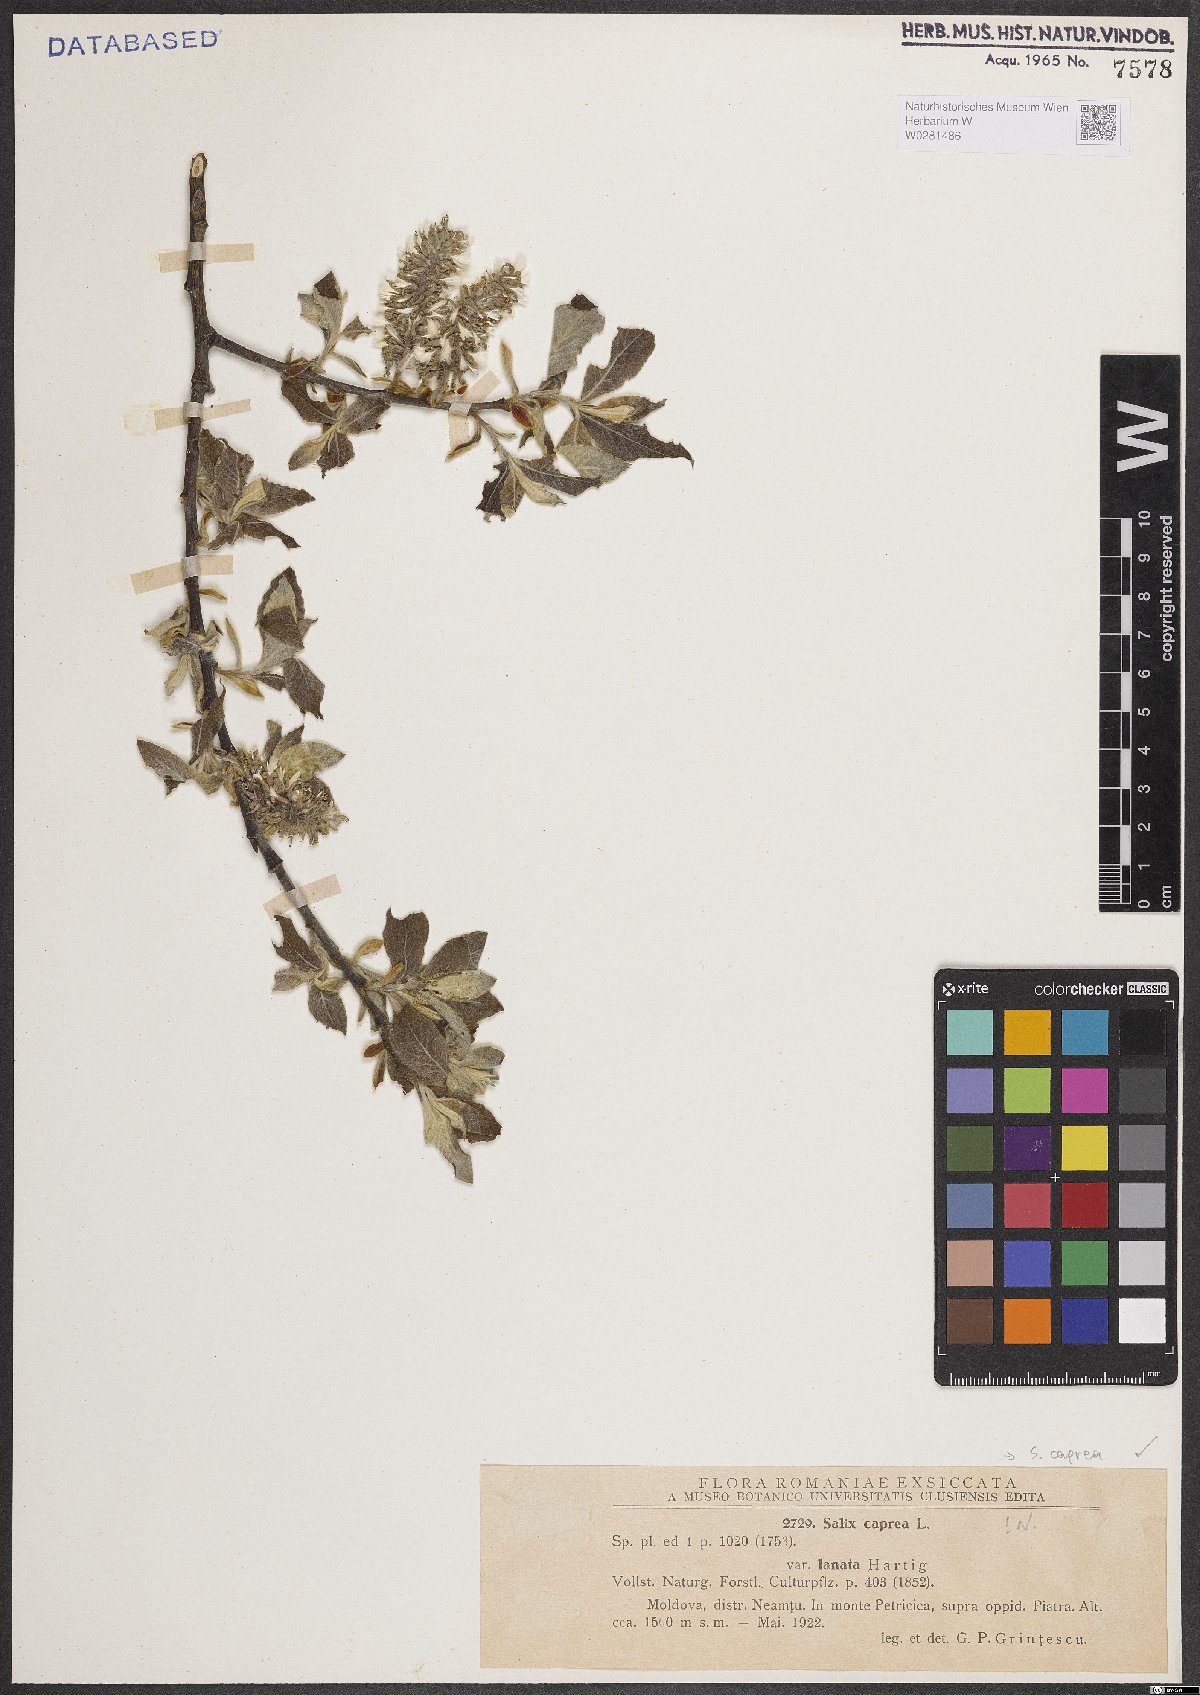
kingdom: Plantae
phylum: Tracheophyta
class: Magnoliopsida
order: Malpighiales
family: Salicaceae
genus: Salix
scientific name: Salix caprea
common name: Goat willow
